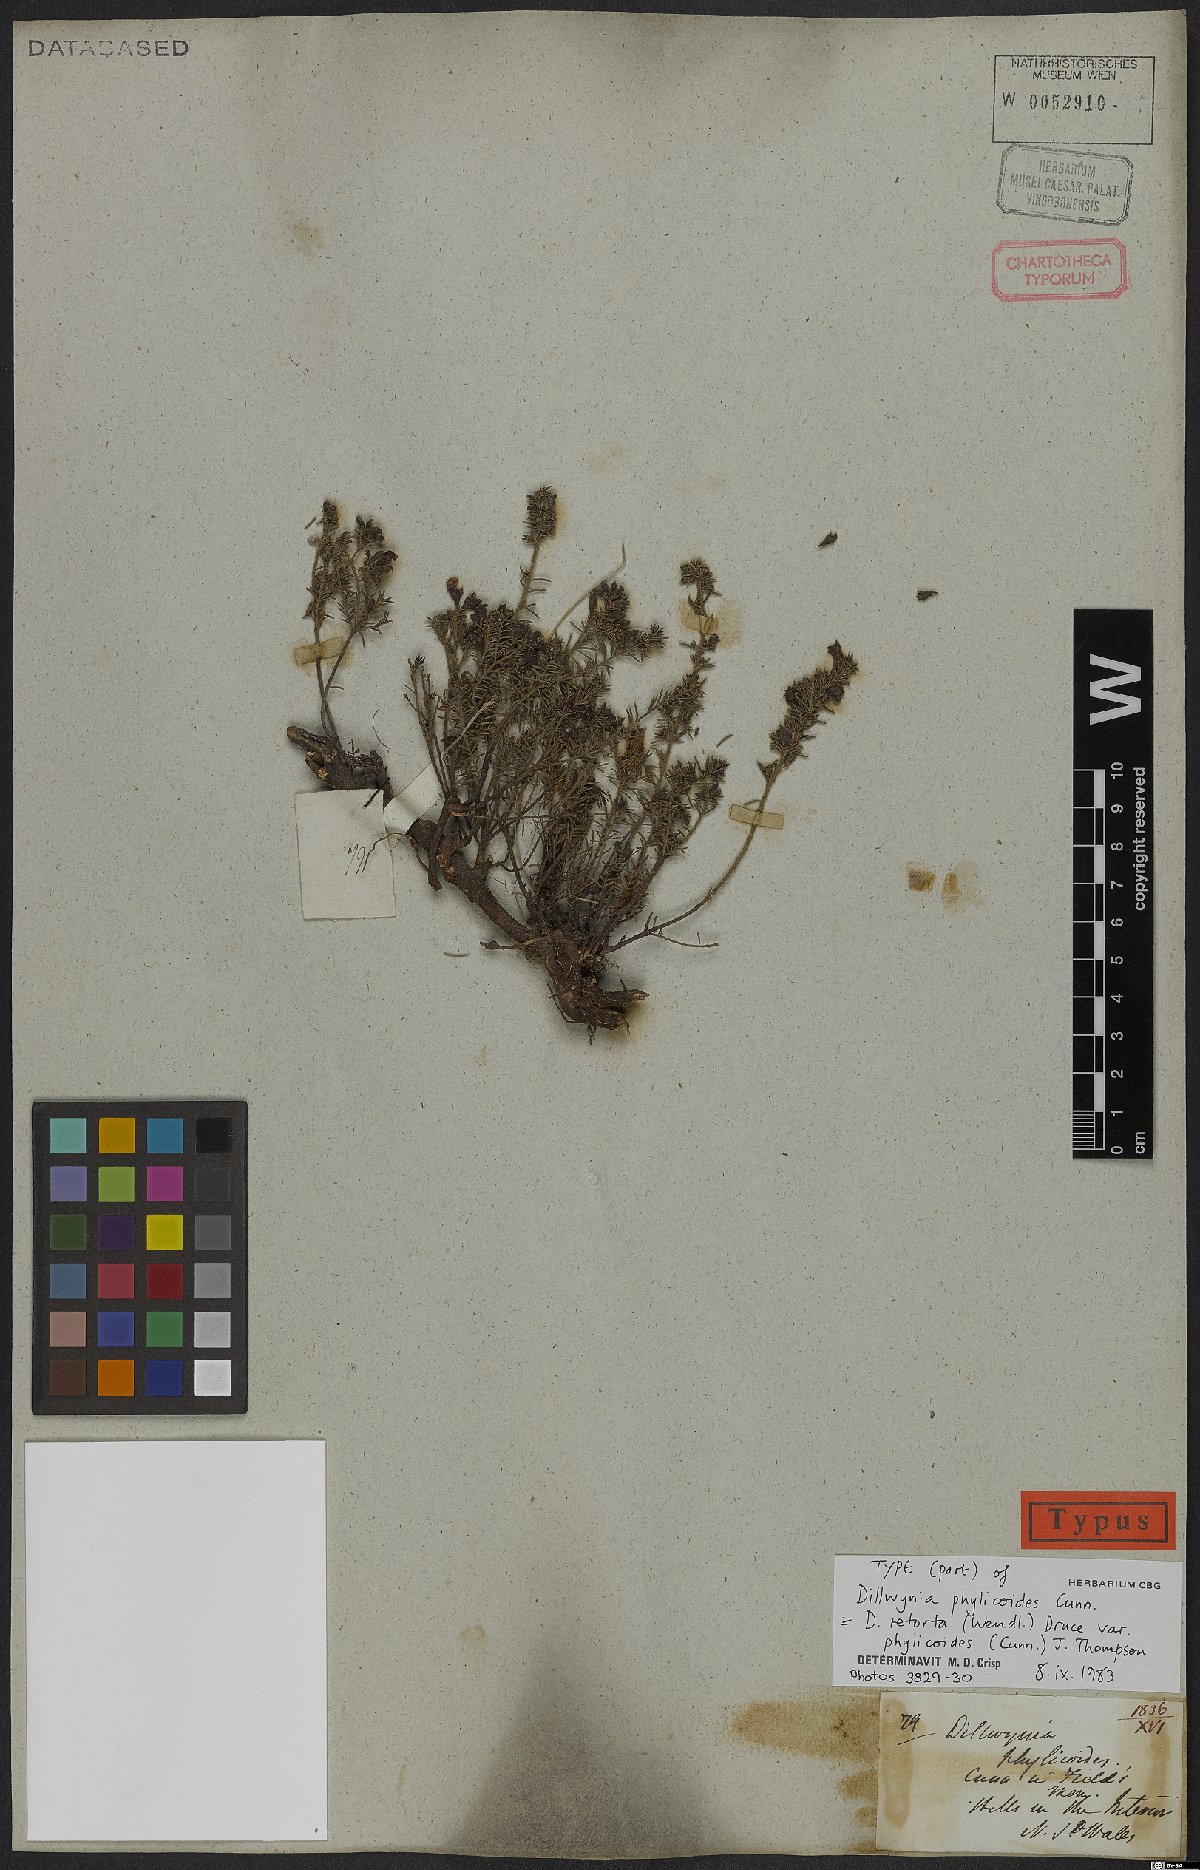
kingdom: Plantae
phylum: Tracheophyta
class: Magnoliopsida
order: Fabales
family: Fabaceae
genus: Dillwynia
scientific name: Dillwynia phylicoides
